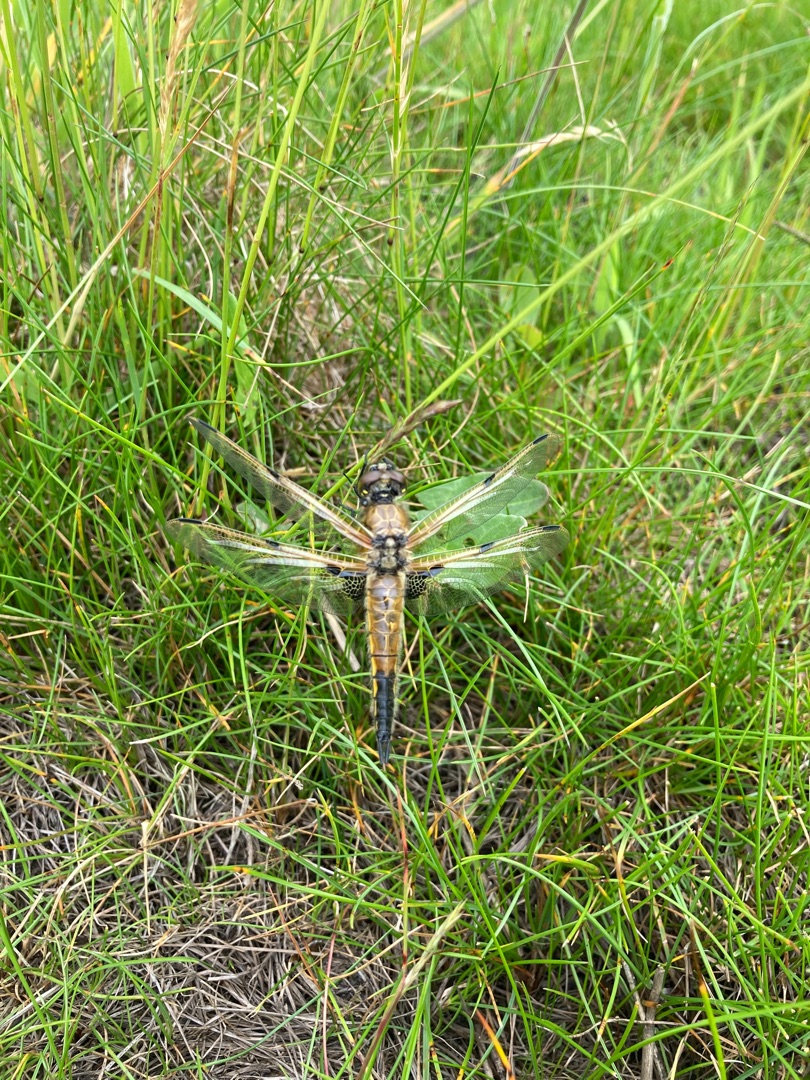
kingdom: Animalia
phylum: Arthropoda
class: Insecta
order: Odonata
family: Libellulidae
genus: Libellula
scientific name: Libellula quadrimaculata
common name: Fireplettet libel
